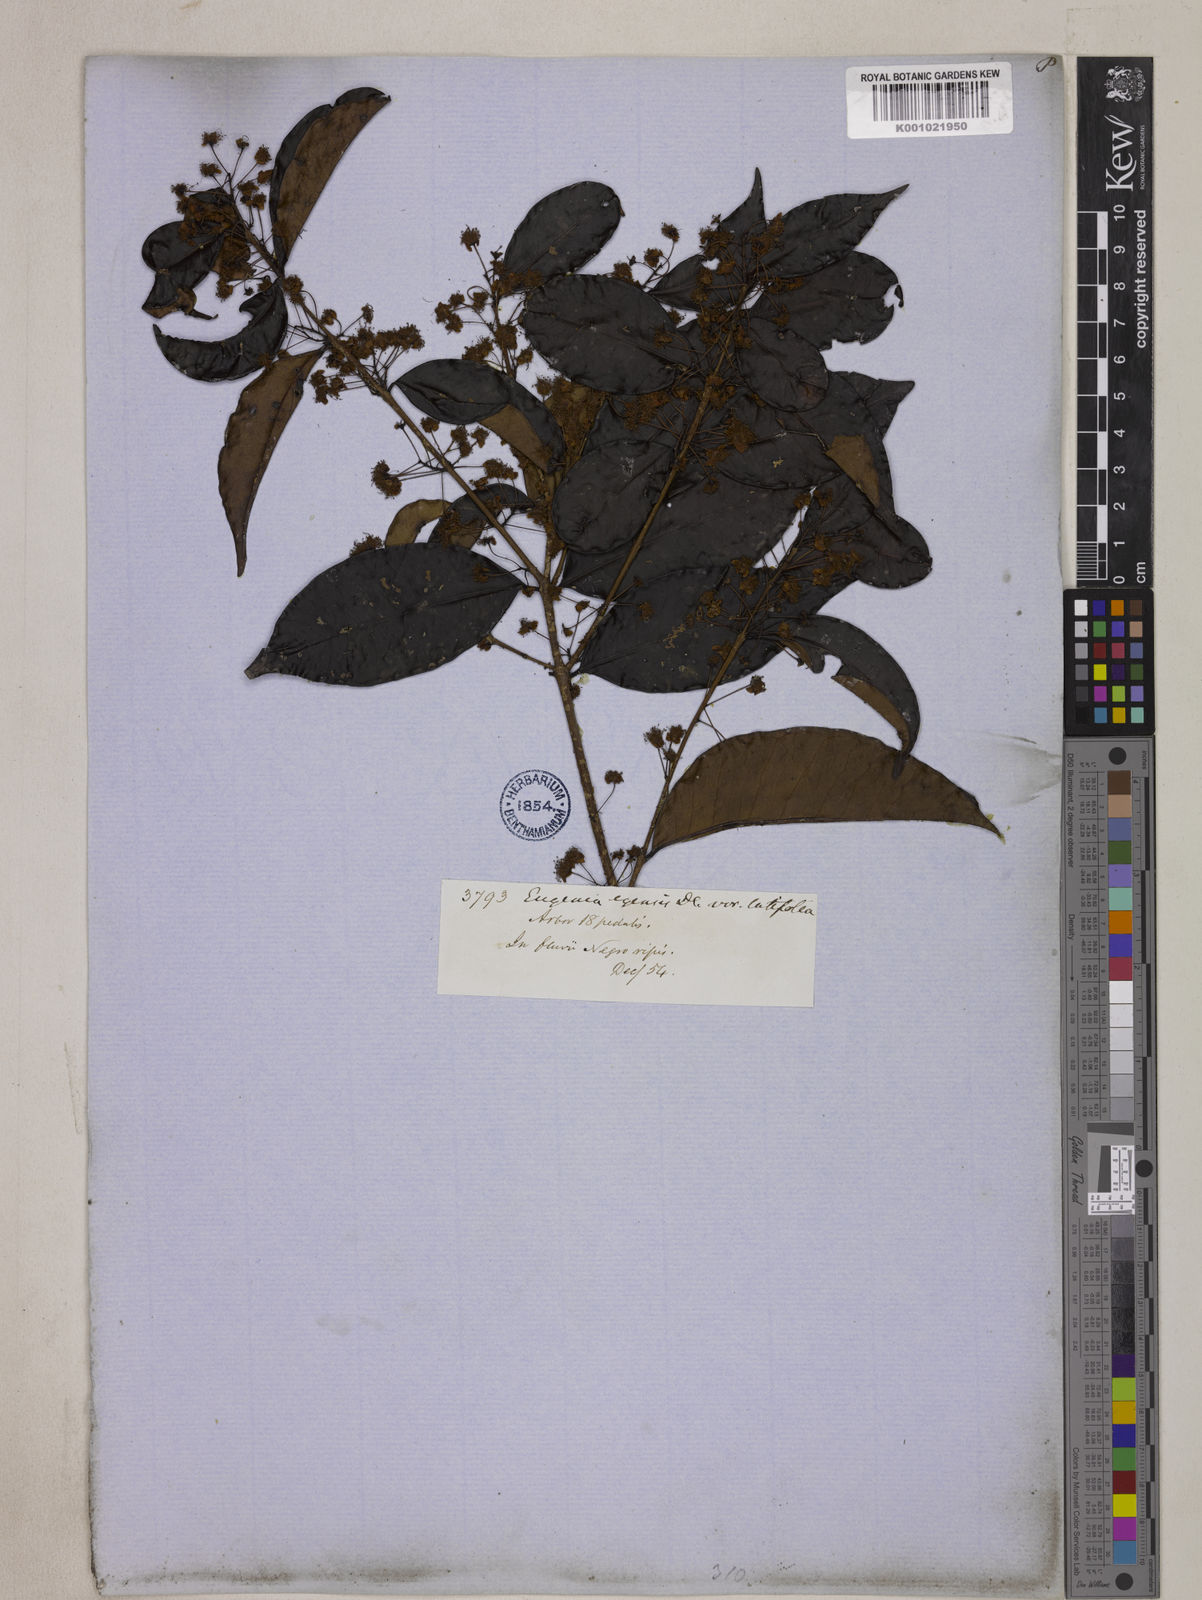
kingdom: Plantae
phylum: Tracheophyta
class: Magnoliopsida
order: Myrtales
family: Myrtaceae
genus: Eugenia
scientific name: Eugenia egensis
